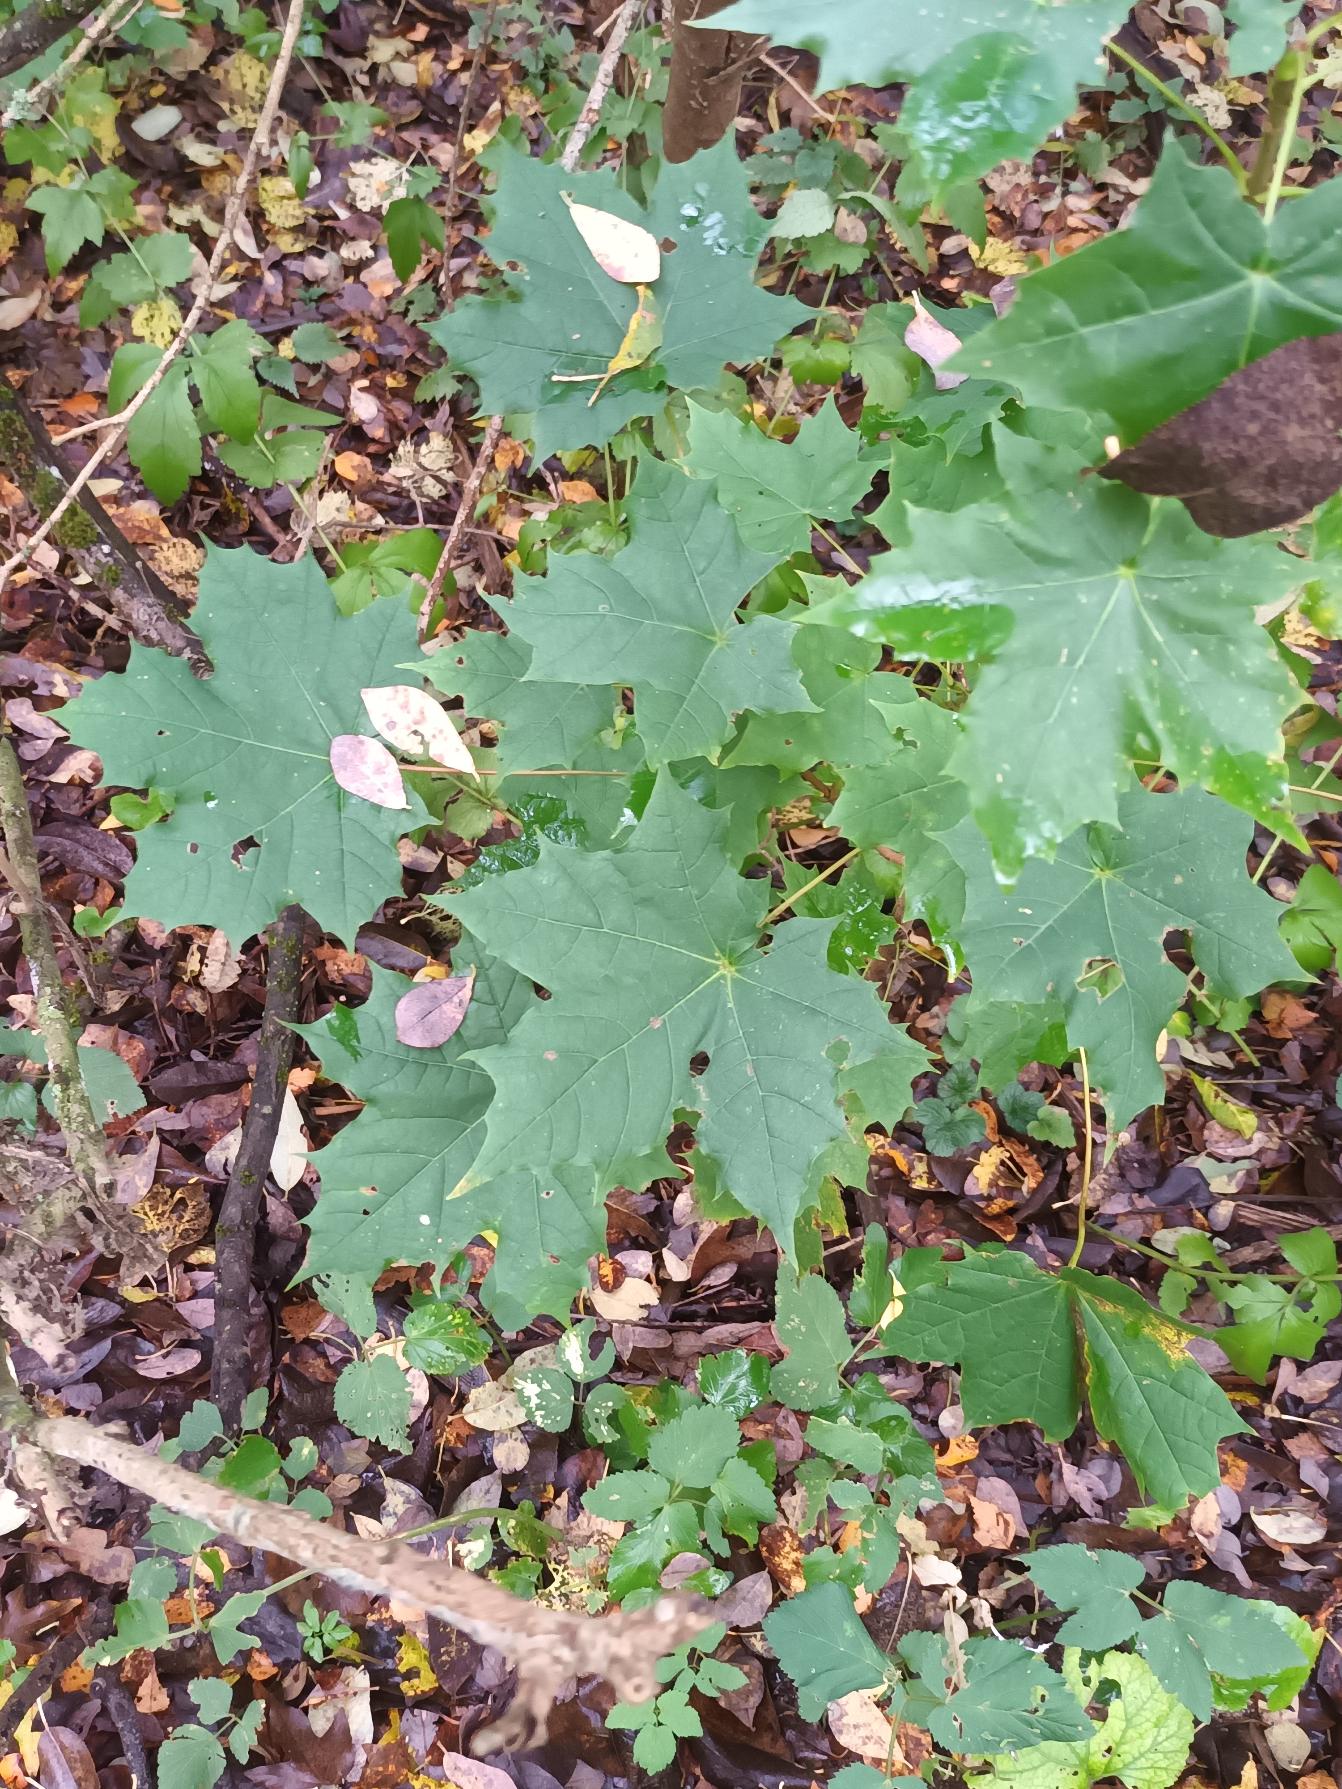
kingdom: Plantae
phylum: Tracheophyta
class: Magnoliopsida
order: Sapindales
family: Sapindaceae
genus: Acer
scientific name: Acer platanoides
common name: Spids-løn
